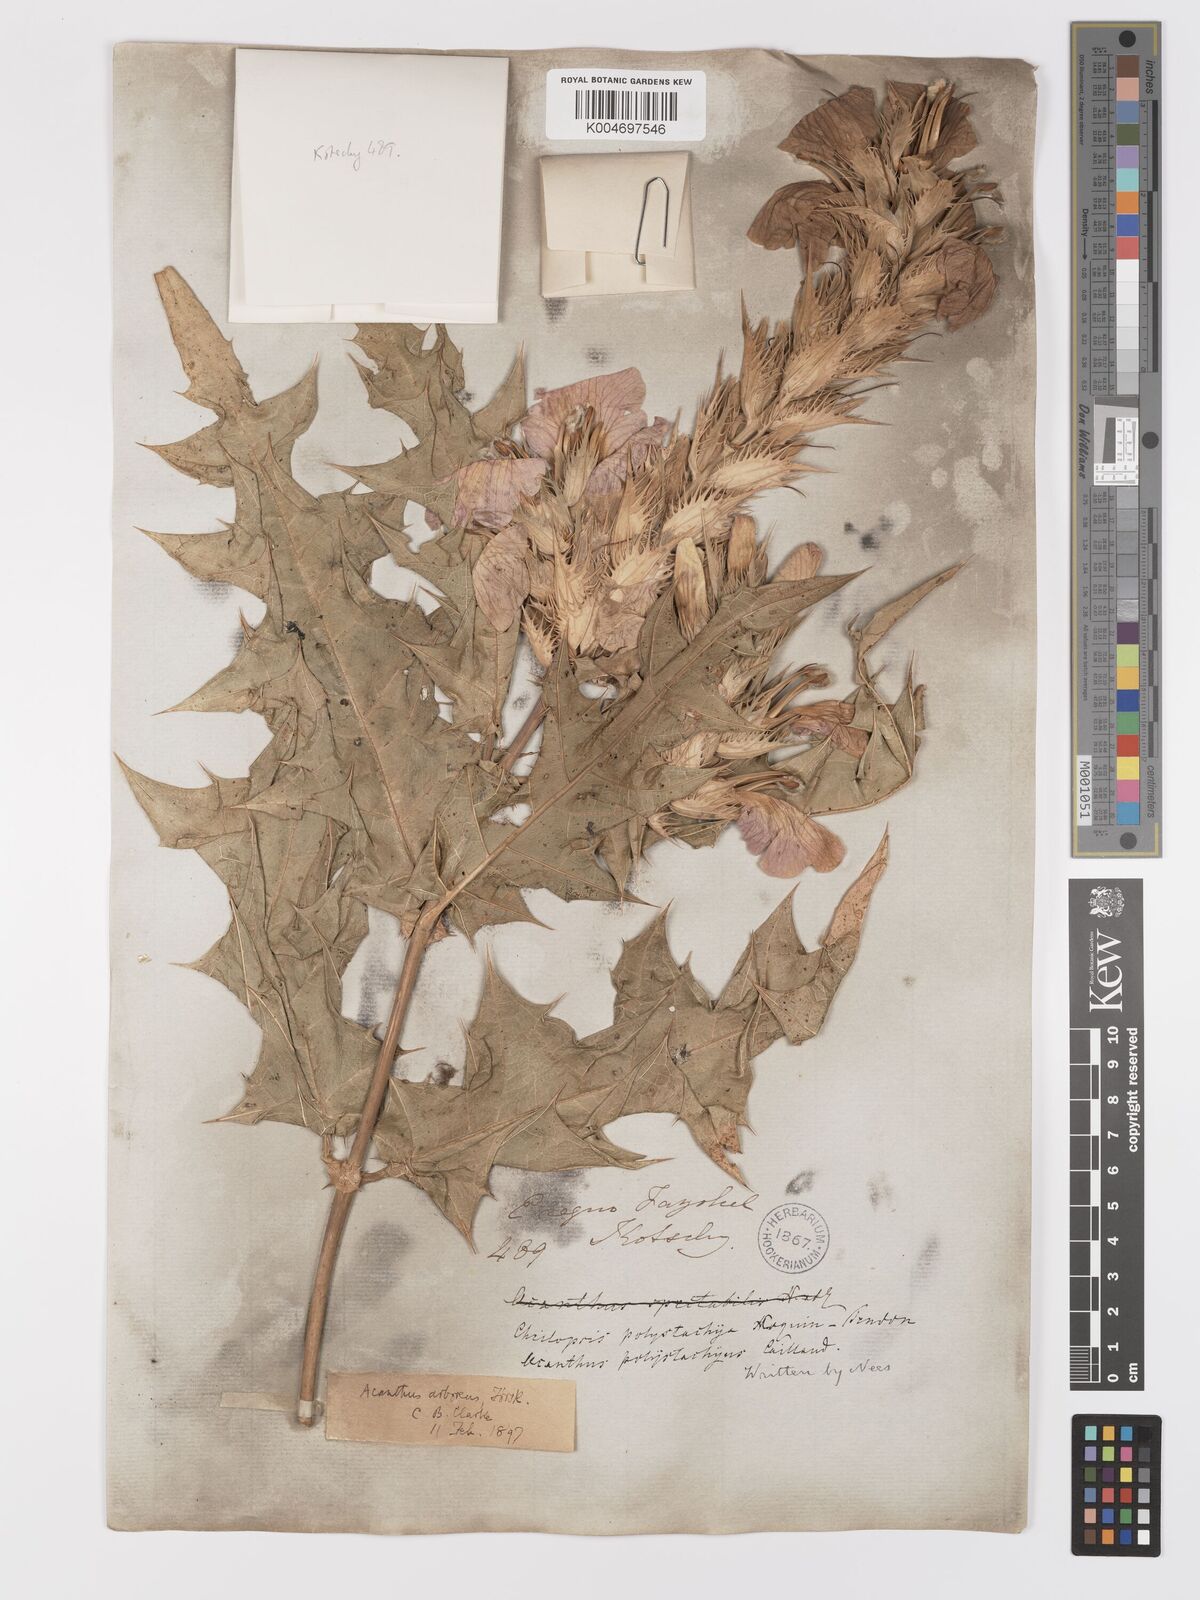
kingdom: Plantae
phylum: Tracheophyta
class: Magnoliopsida
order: Lamiales
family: Acanthaceae
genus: Acanthus
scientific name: Acanthus polystachyus
